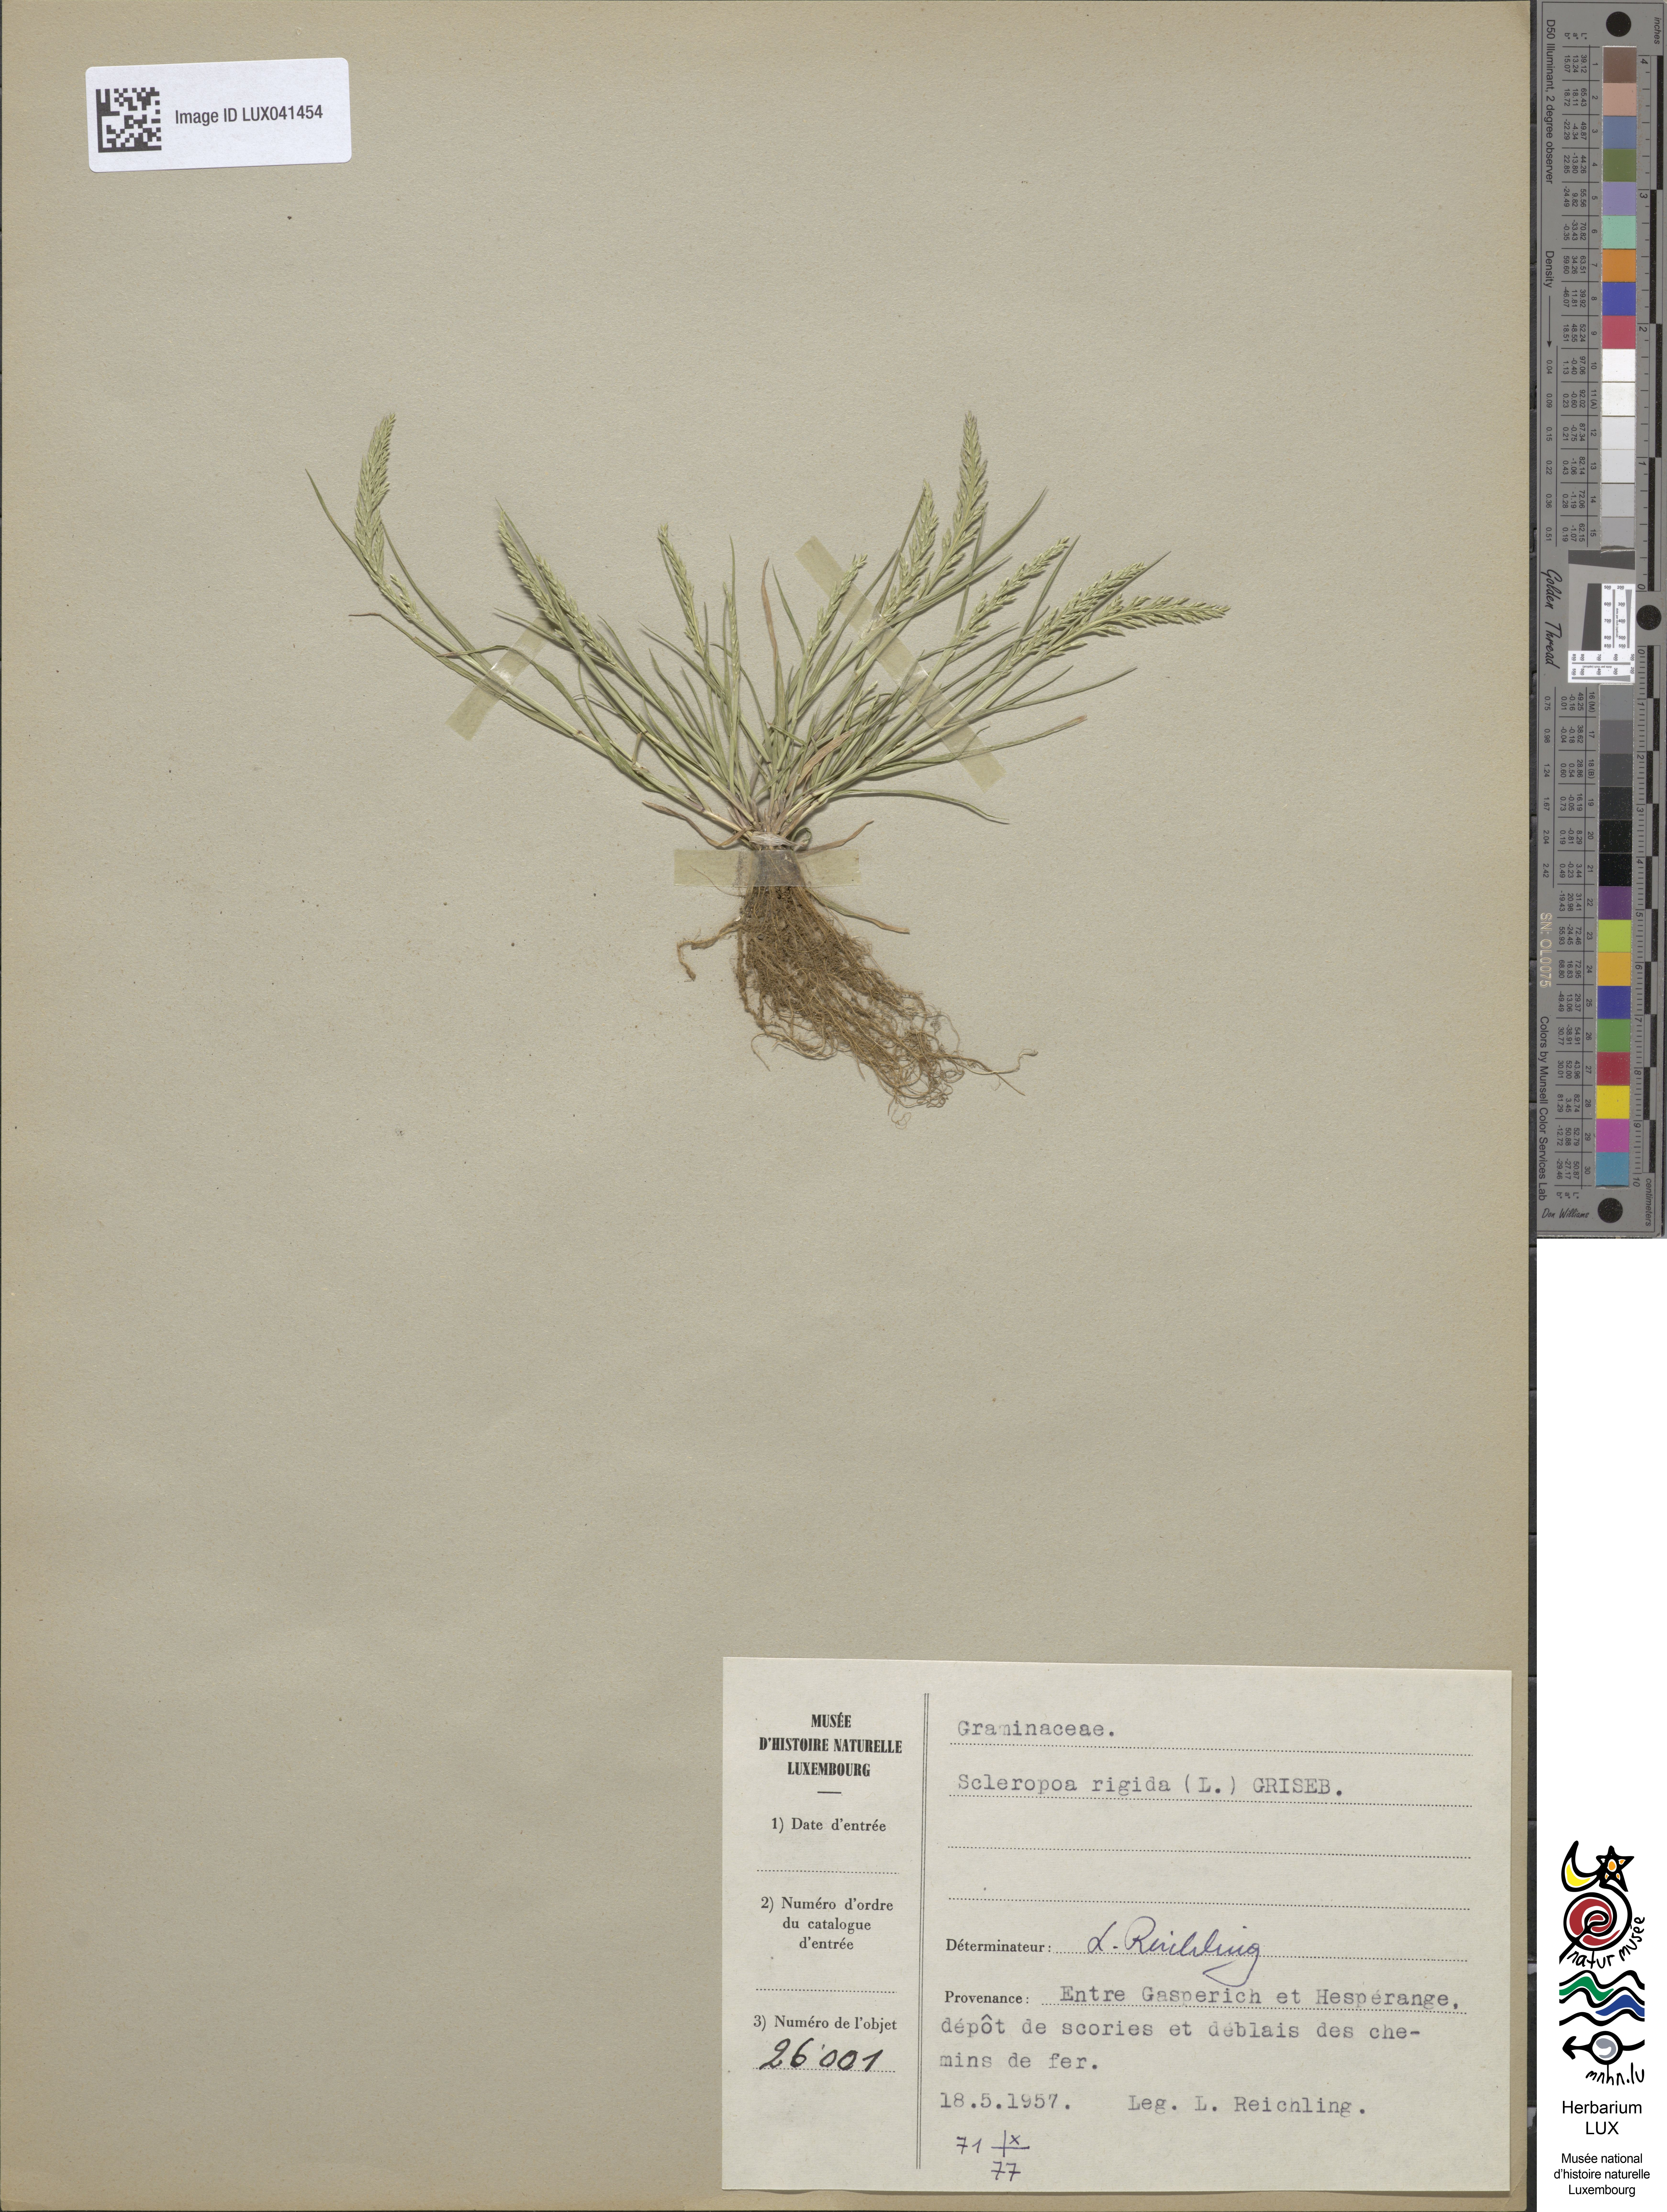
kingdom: Plantae
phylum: Tracheophyta
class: Liliopsida
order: Poales
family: Poaceae
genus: Catapodium
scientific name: Catapodium rigidum
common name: Fern-grass
